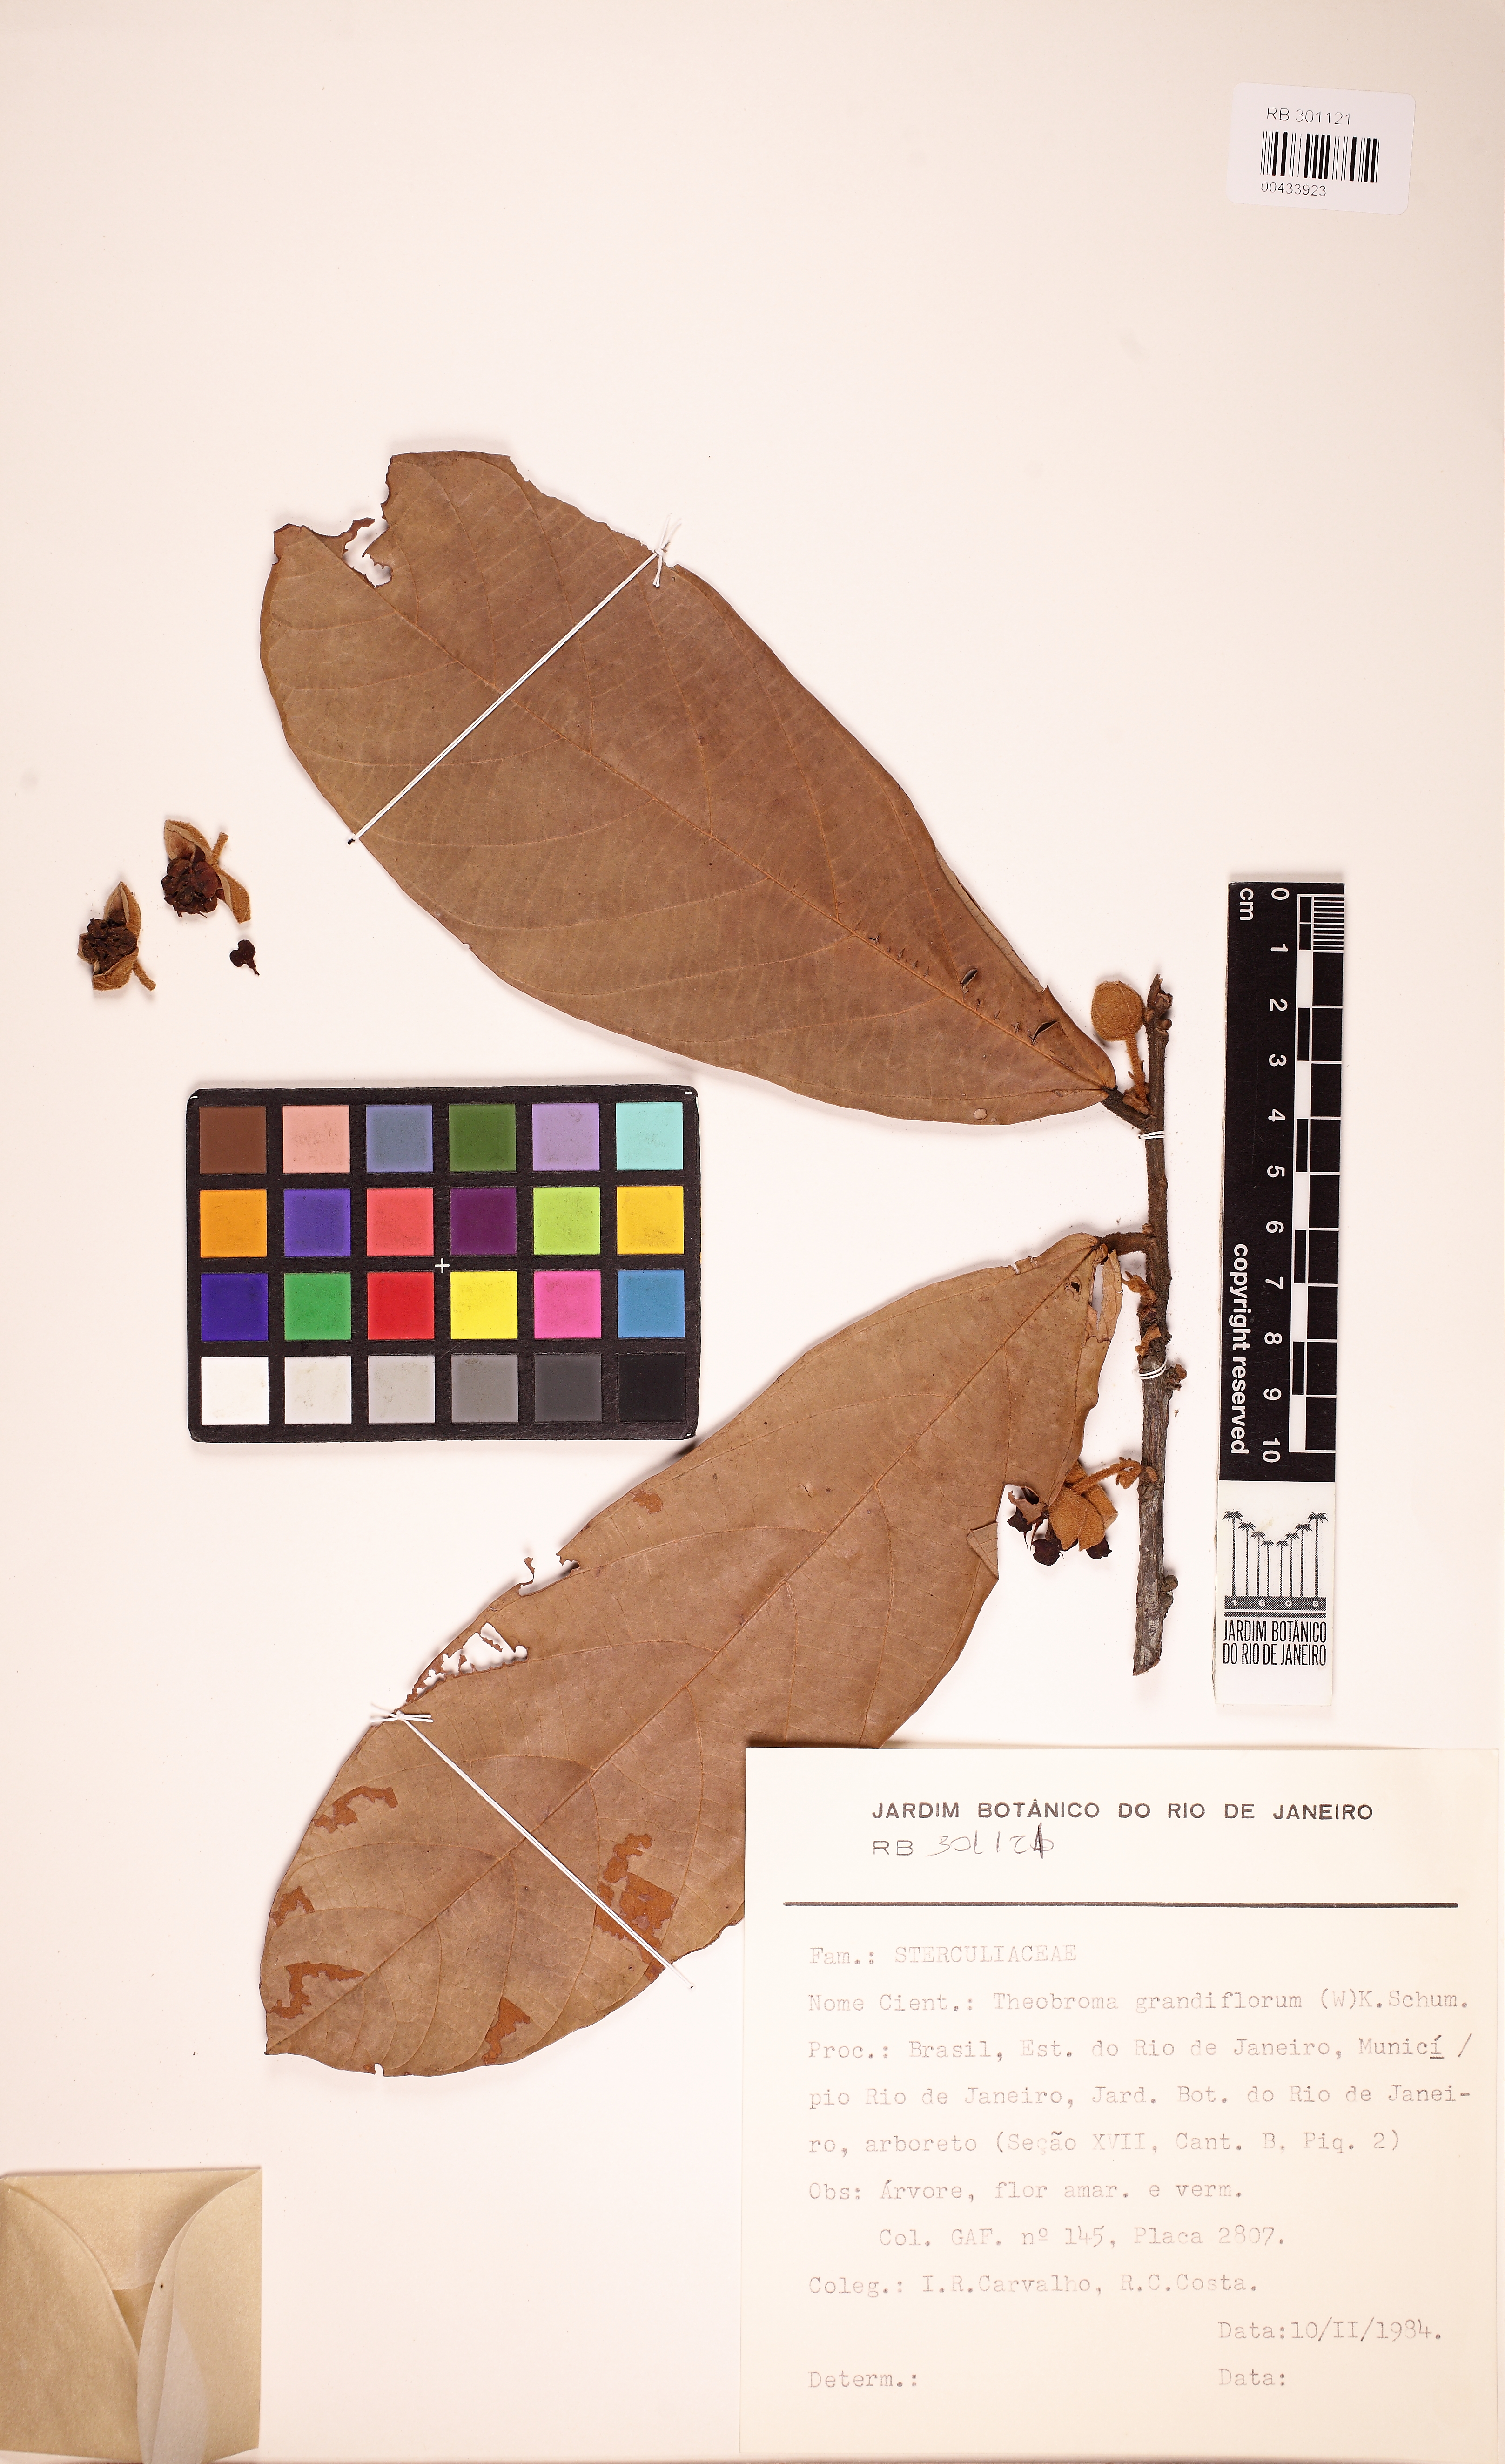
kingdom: Plantae
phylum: Tracheophyta
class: Magnoliopsida
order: Malvales
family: Malvaceae
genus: Theobroma
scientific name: Theobroma grandiflorum
